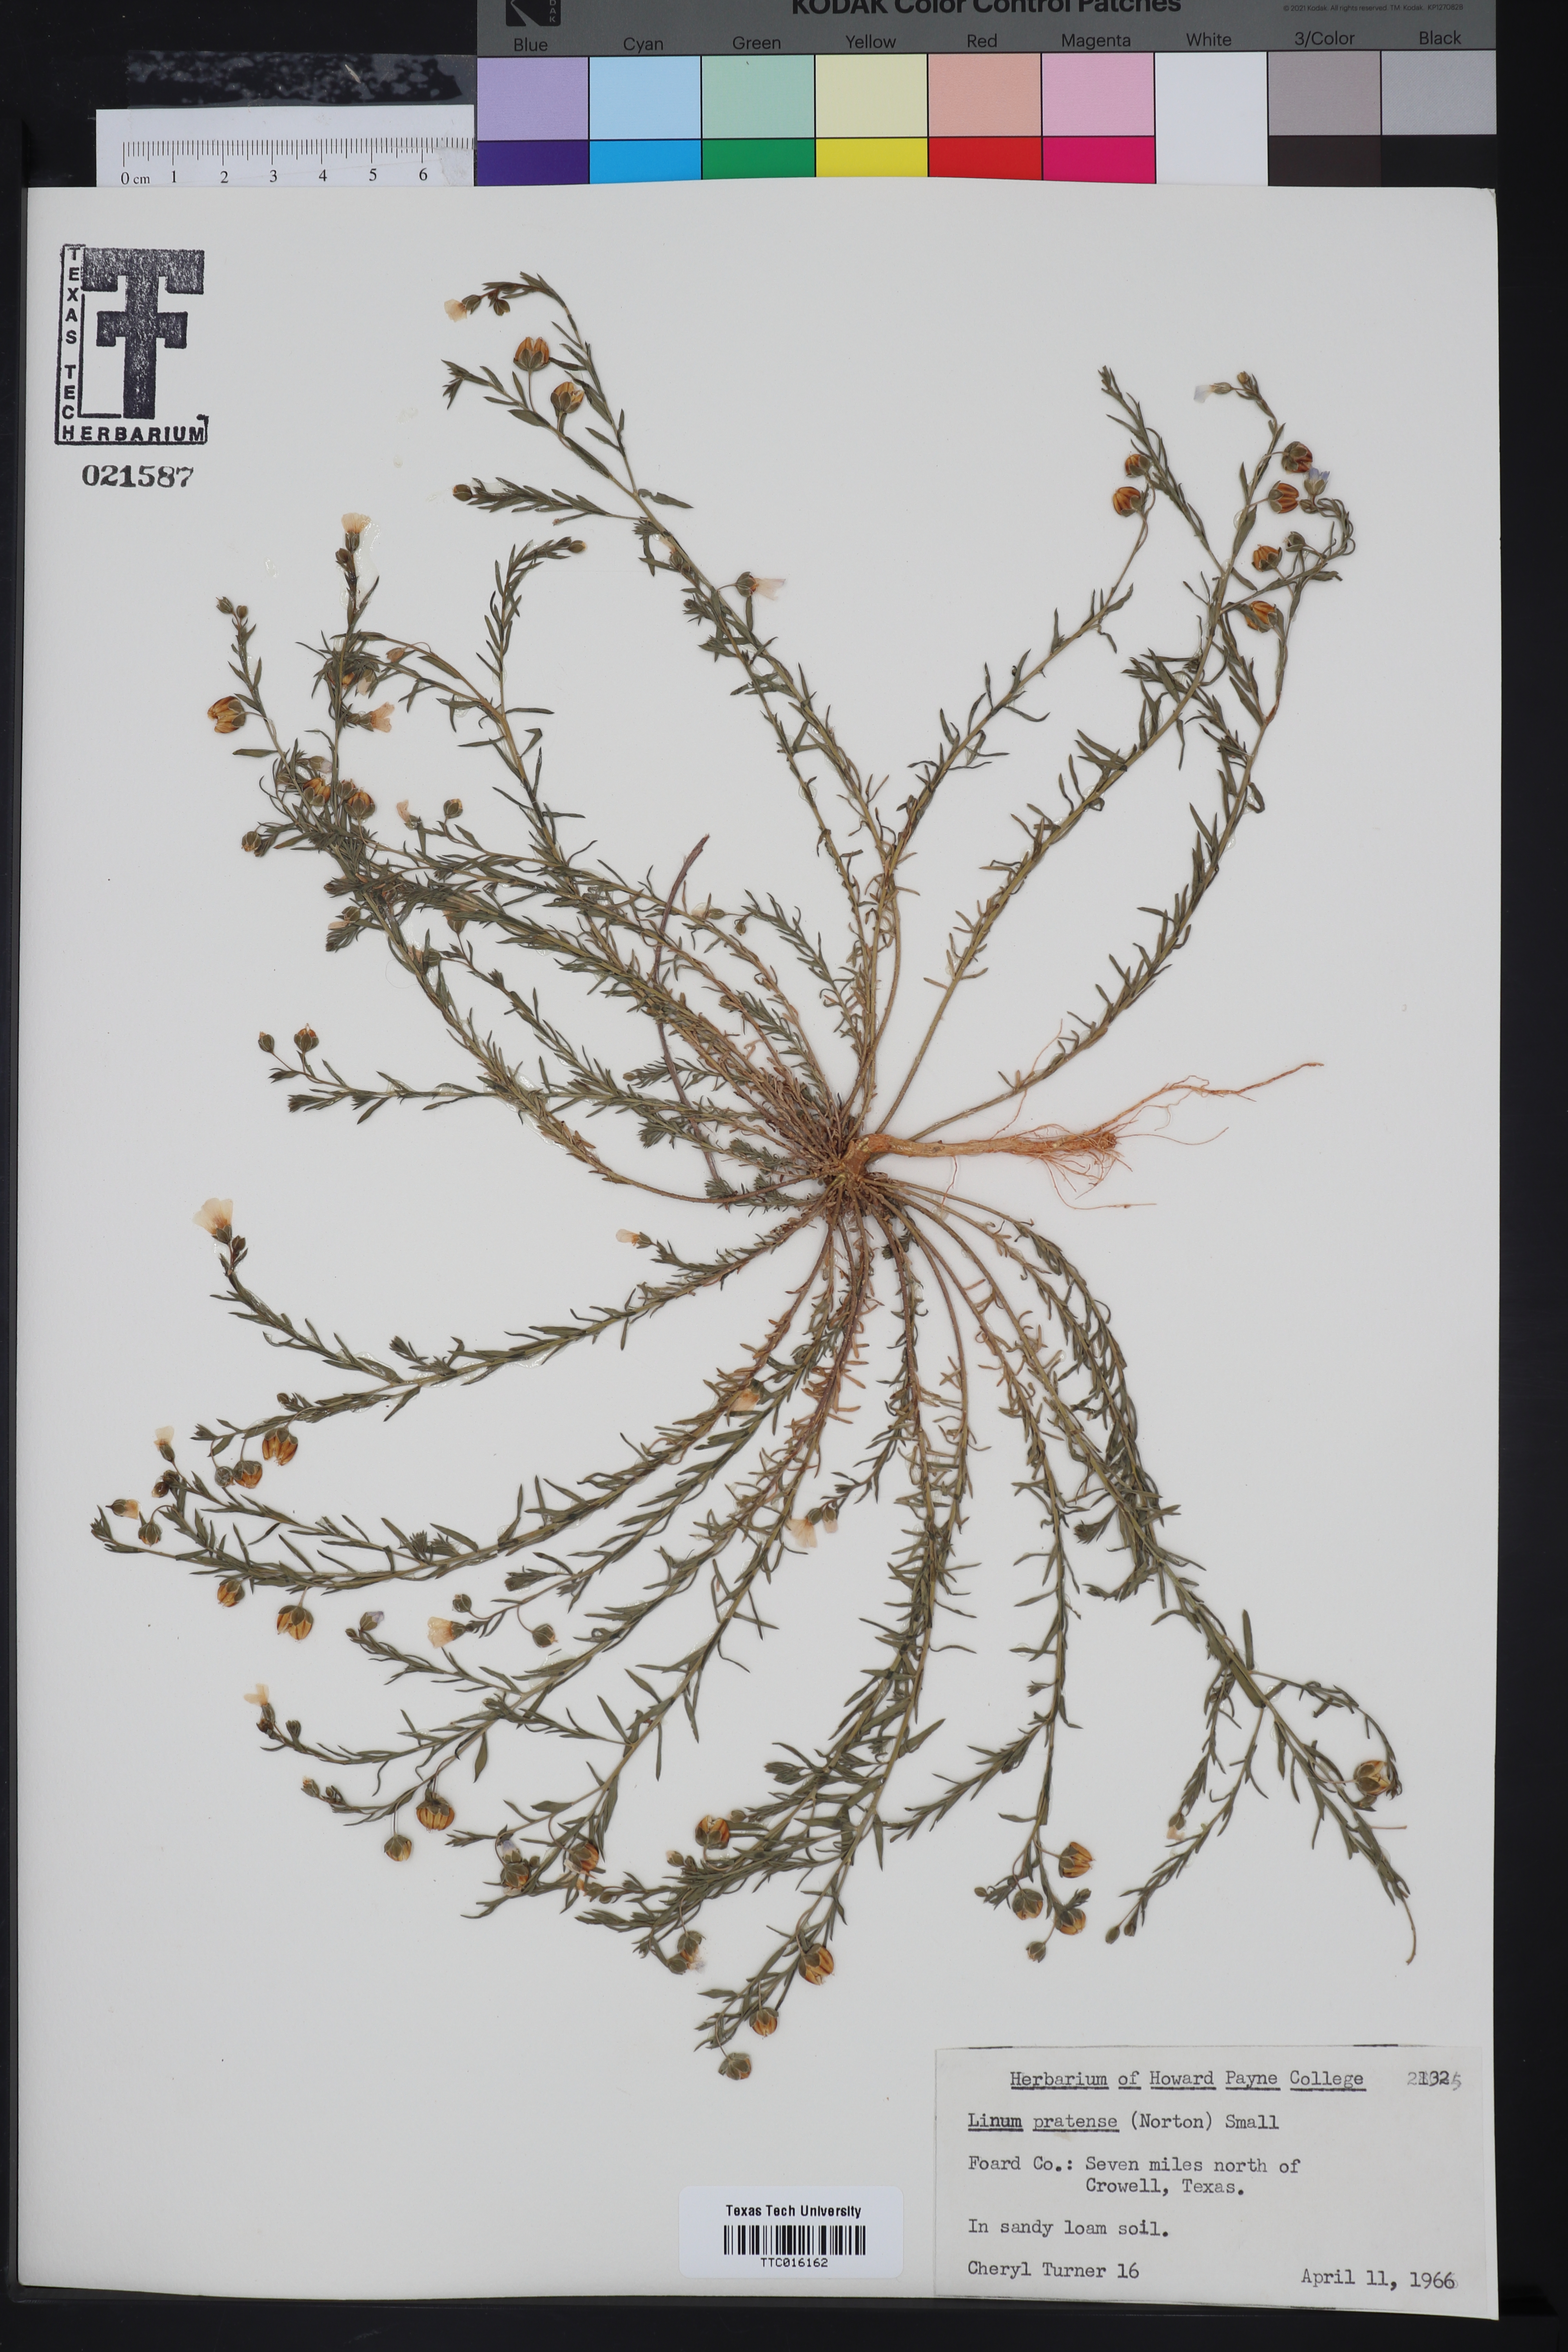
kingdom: Plantae
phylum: Tracheophyta
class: Magnoliopsida
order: Malpighiales
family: Linaceae
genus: Linum
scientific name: Linum pratense
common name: Norton's flax
